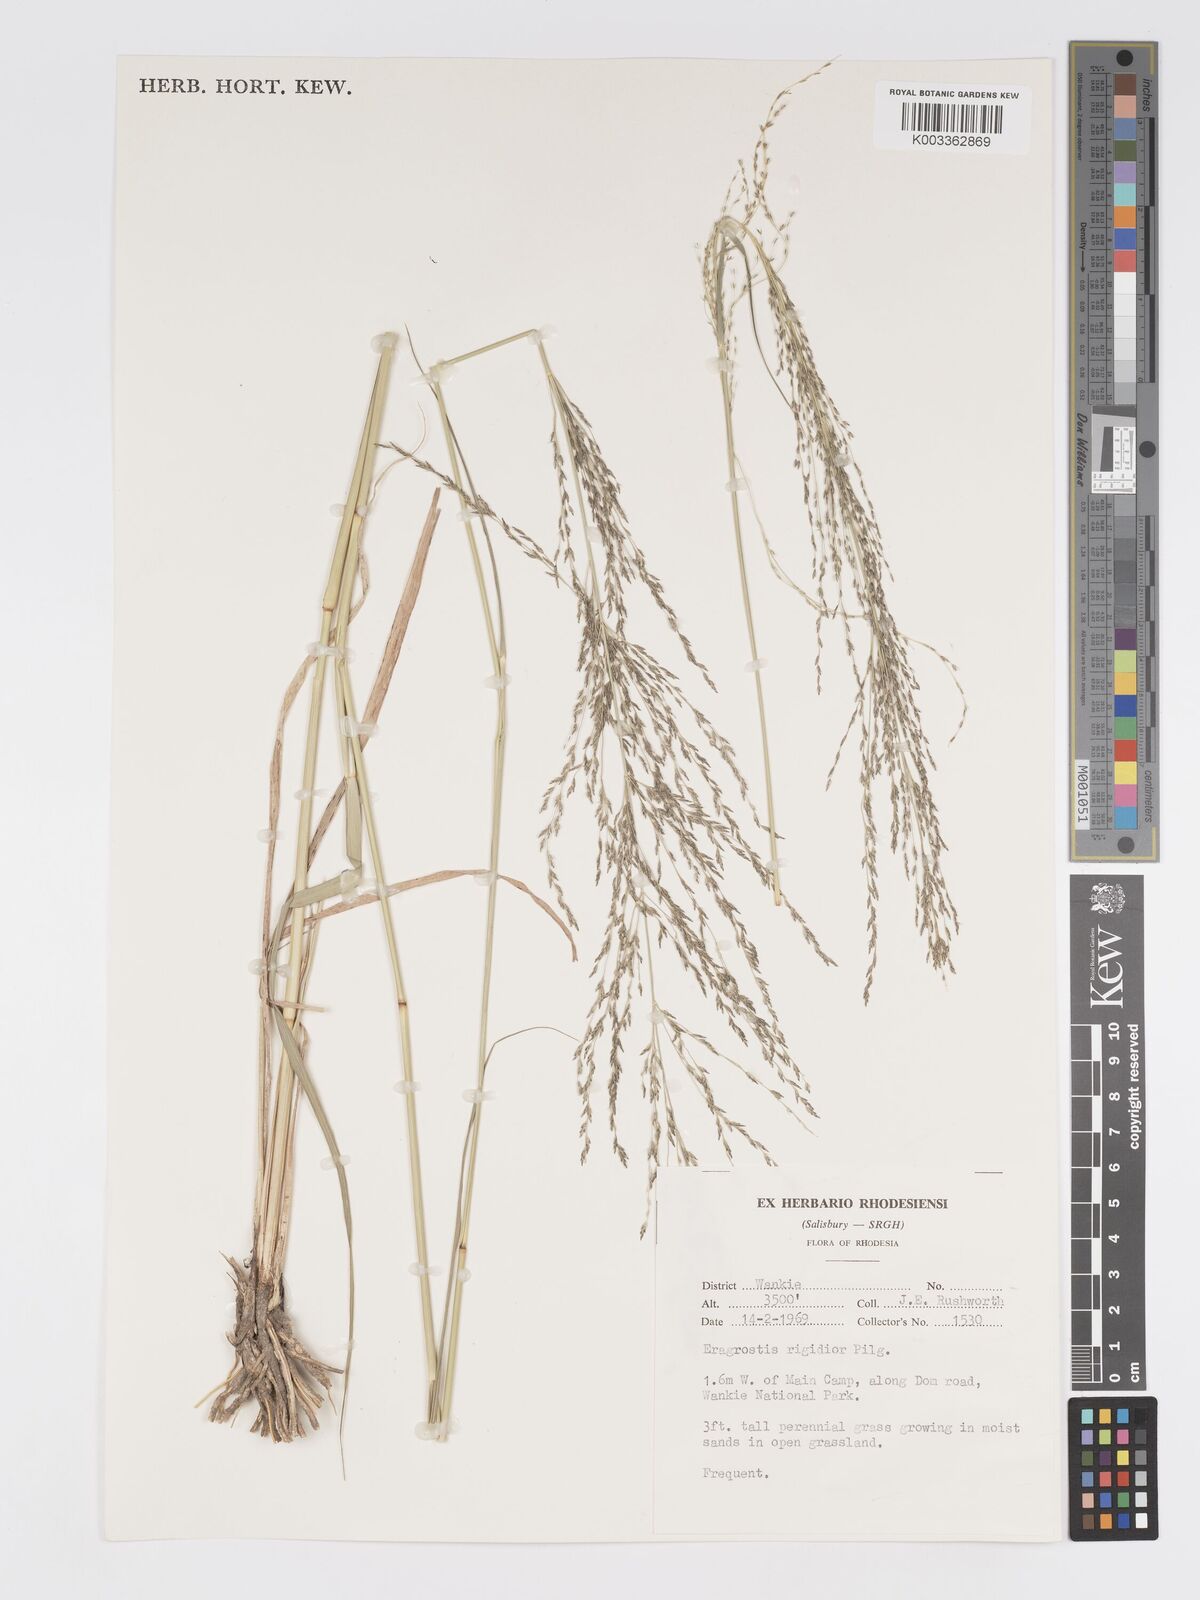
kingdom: Plantae
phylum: Tracheophyta
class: Liliopsida
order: Poales
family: Poaceae
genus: Eragrostis
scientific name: Eragrostis cylindriflora
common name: Cylinderflower lovegrass
